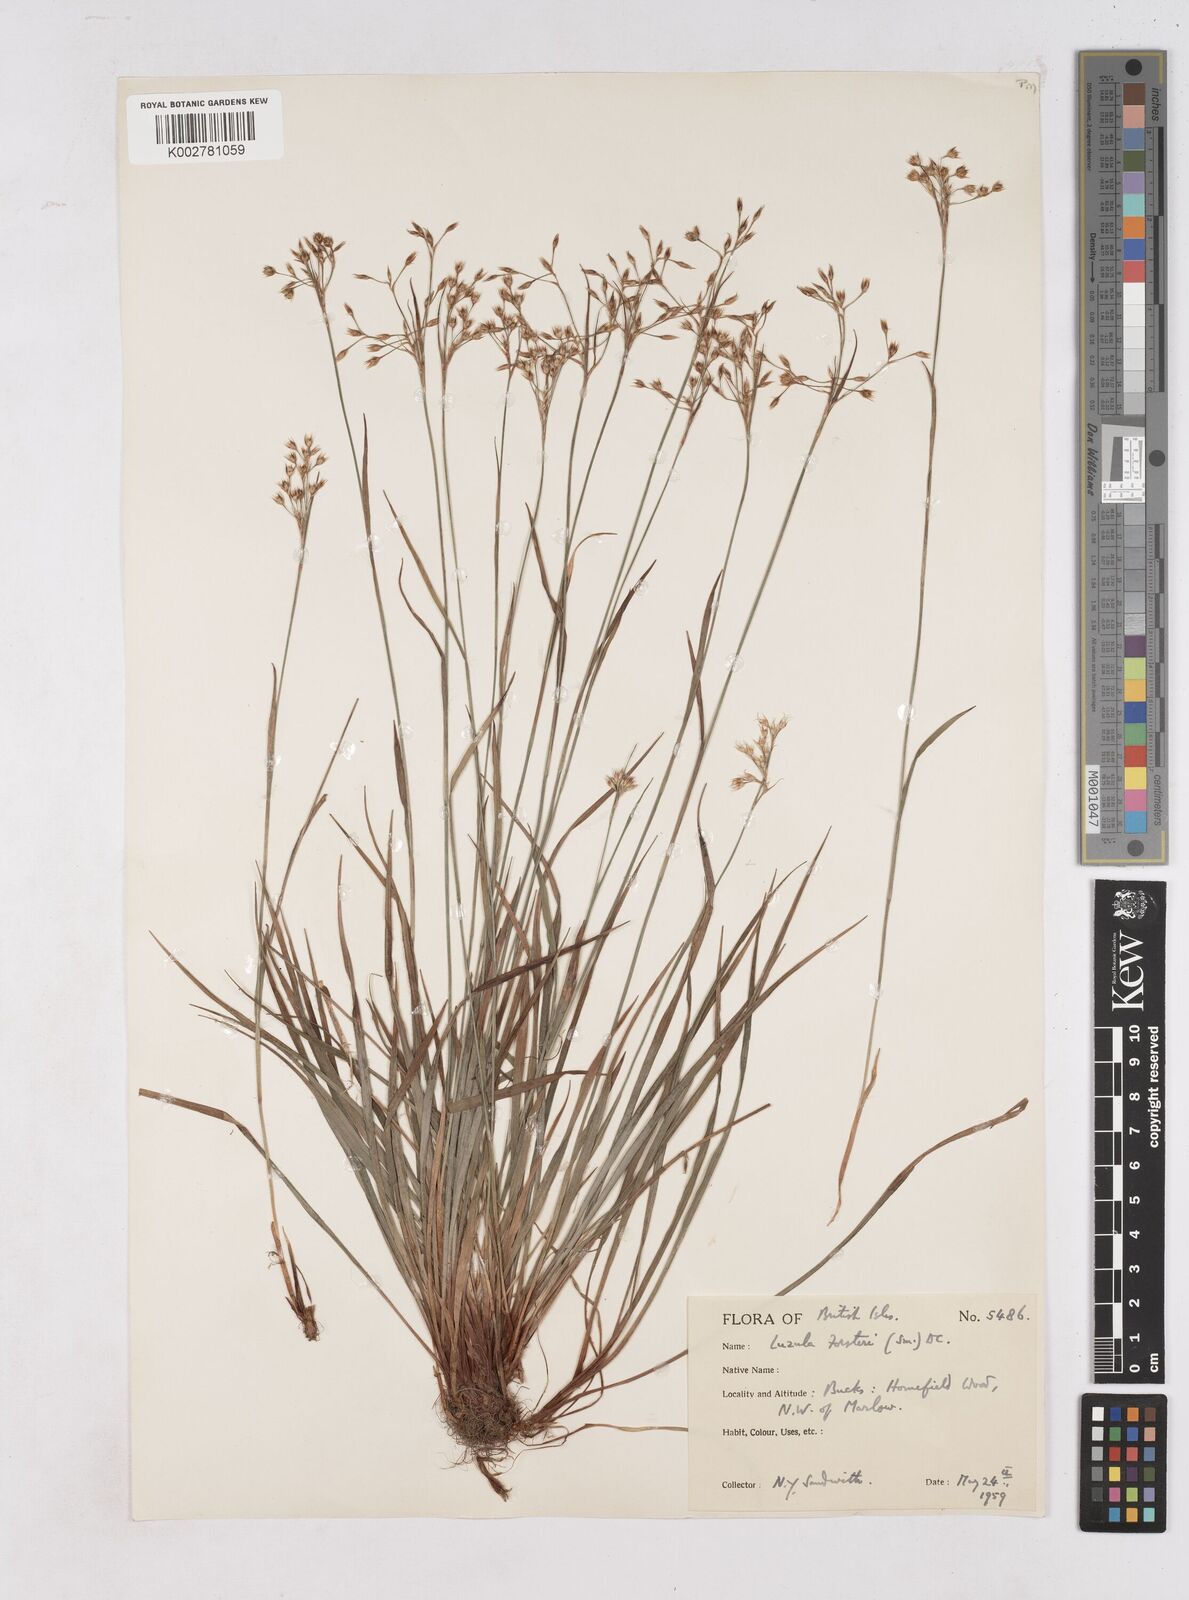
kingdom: Plantae
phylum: Tracheophyta
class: Liliopsida
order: Poales
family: Juncaceae
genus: Luzula
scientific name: Luzula forsteri
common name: Southern wood-rush
